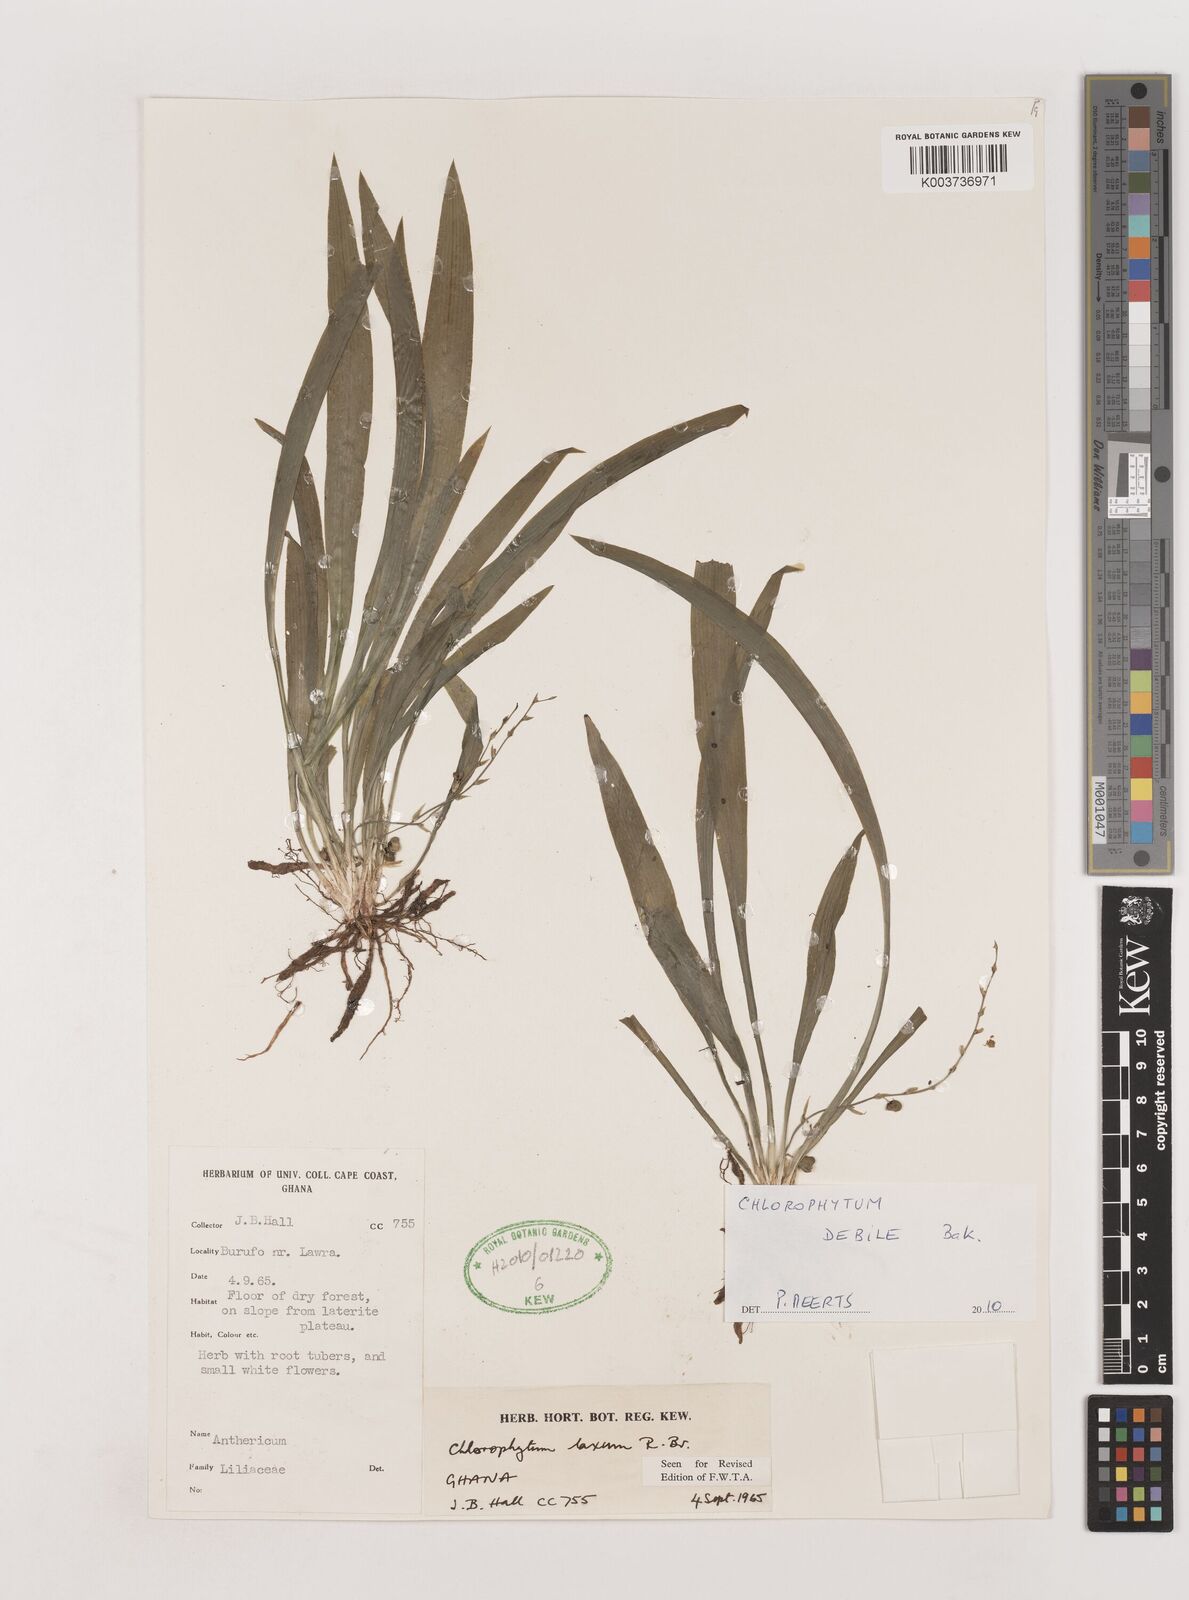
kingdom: Plantae
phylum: Tracheophyta
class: Liliopsida
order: Asparagales
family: Asparagaceae
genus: Chlorophytum
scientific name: Chlorophytum laxum
